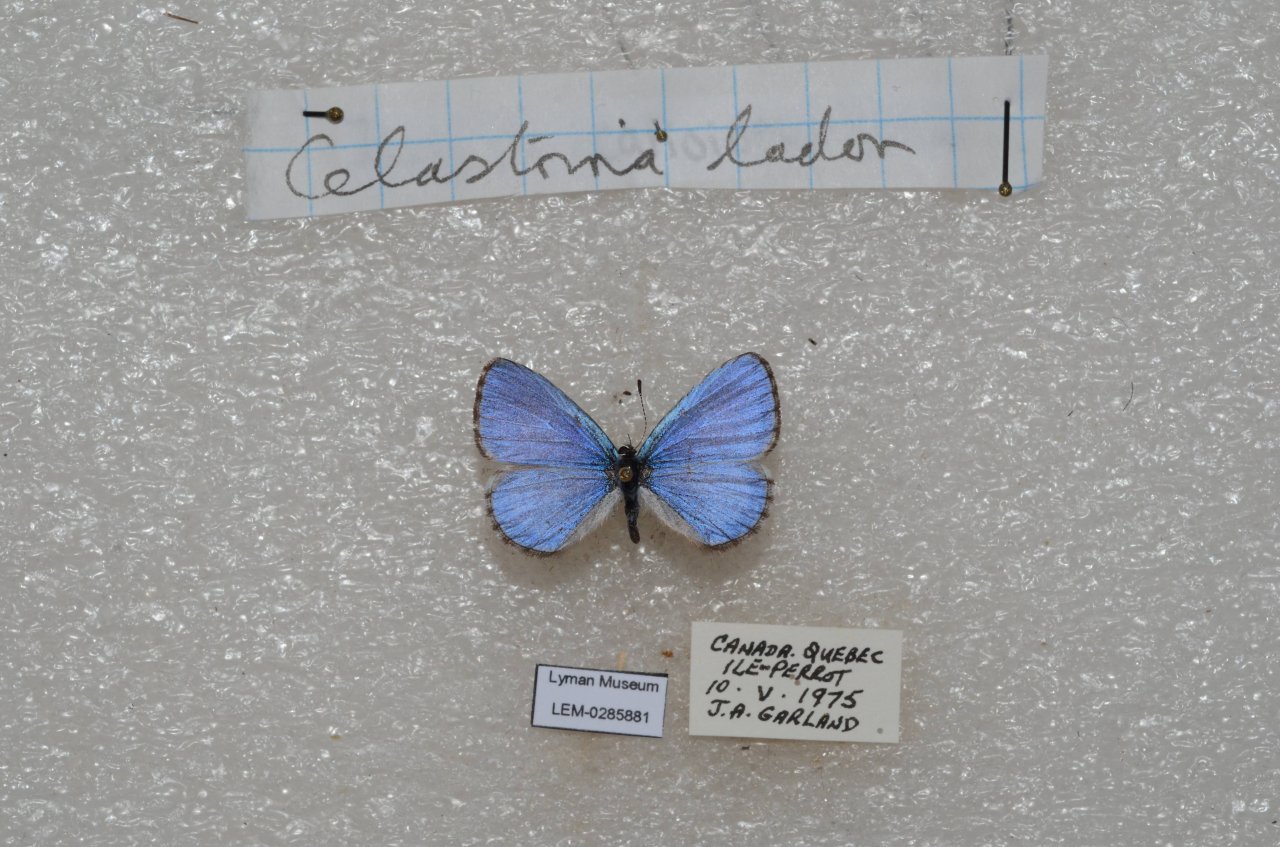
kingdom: Animalia
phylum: Arthropoda
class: Insecta
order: Lepidoptera
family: Lycaenidae
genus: Celastrina
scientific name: Celastrina lucia
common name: Northern Spring Azure
